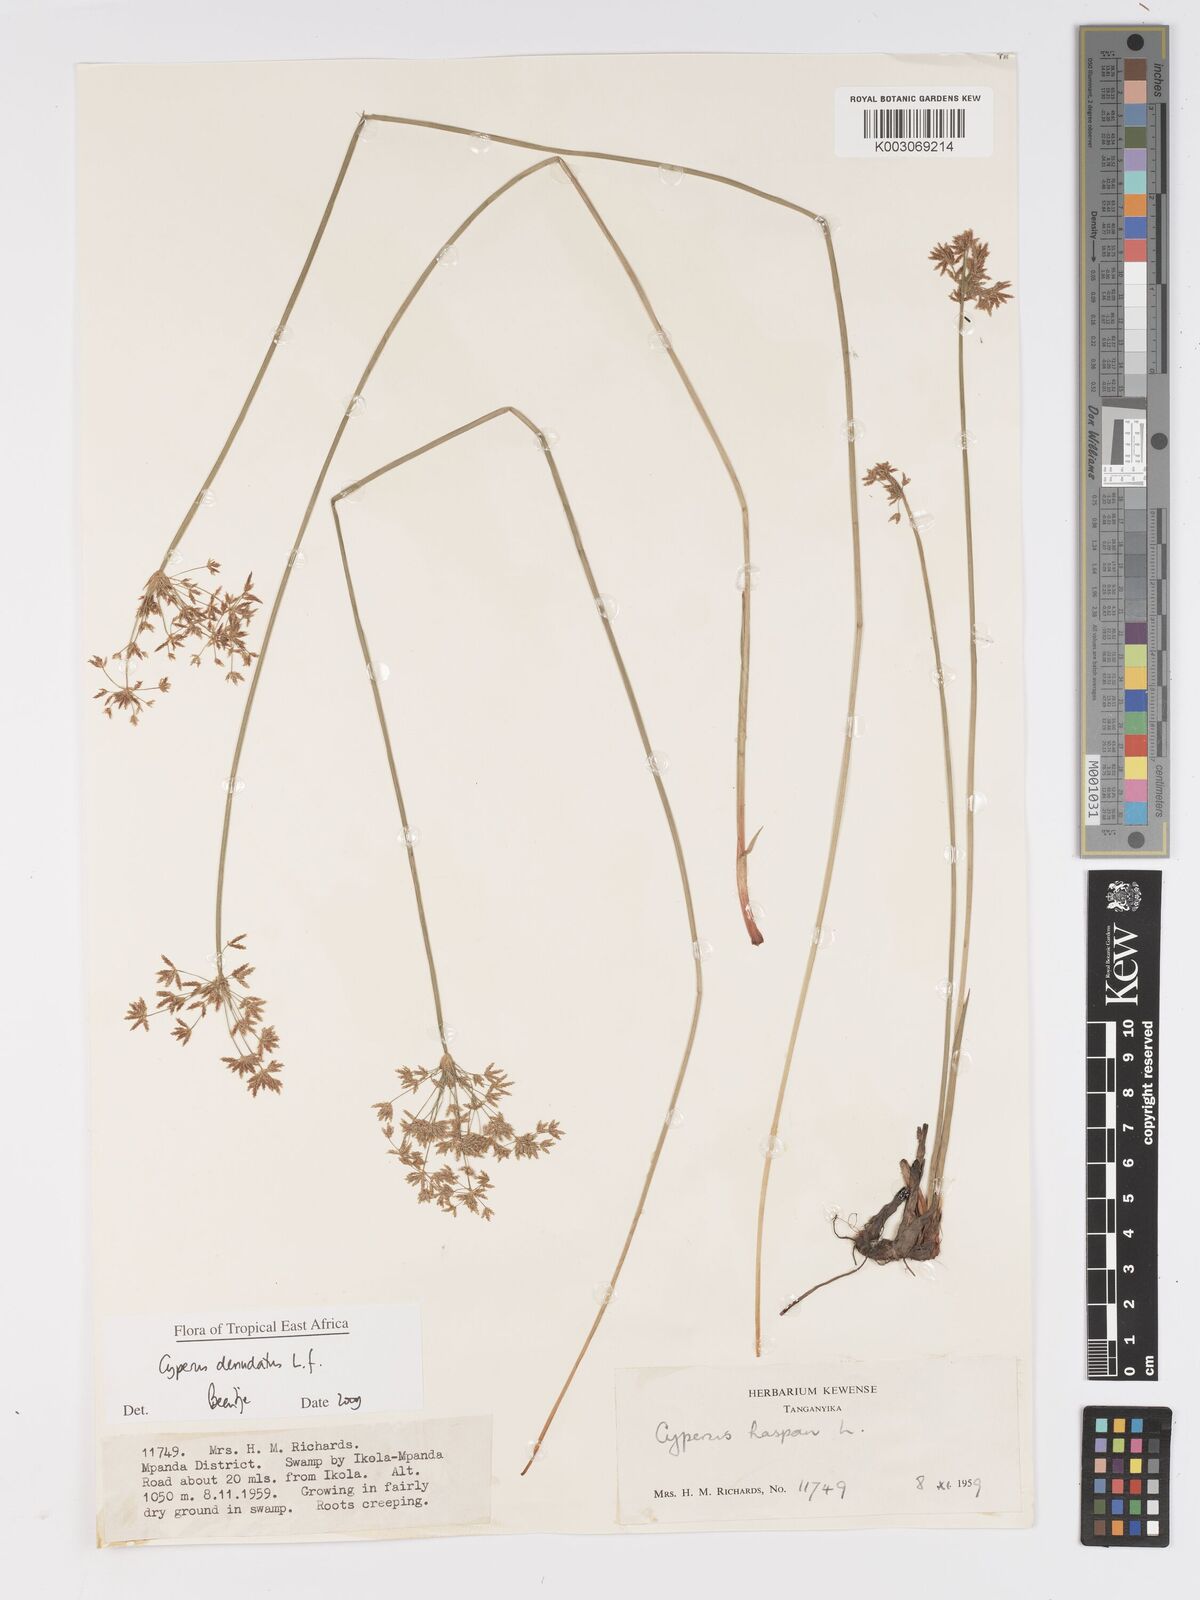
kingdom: Plantae
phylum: Tracheophyta
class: Liliopsida
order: Poales
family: Cyperaceae
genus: Cyperus
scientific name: Cyperus denudatus
